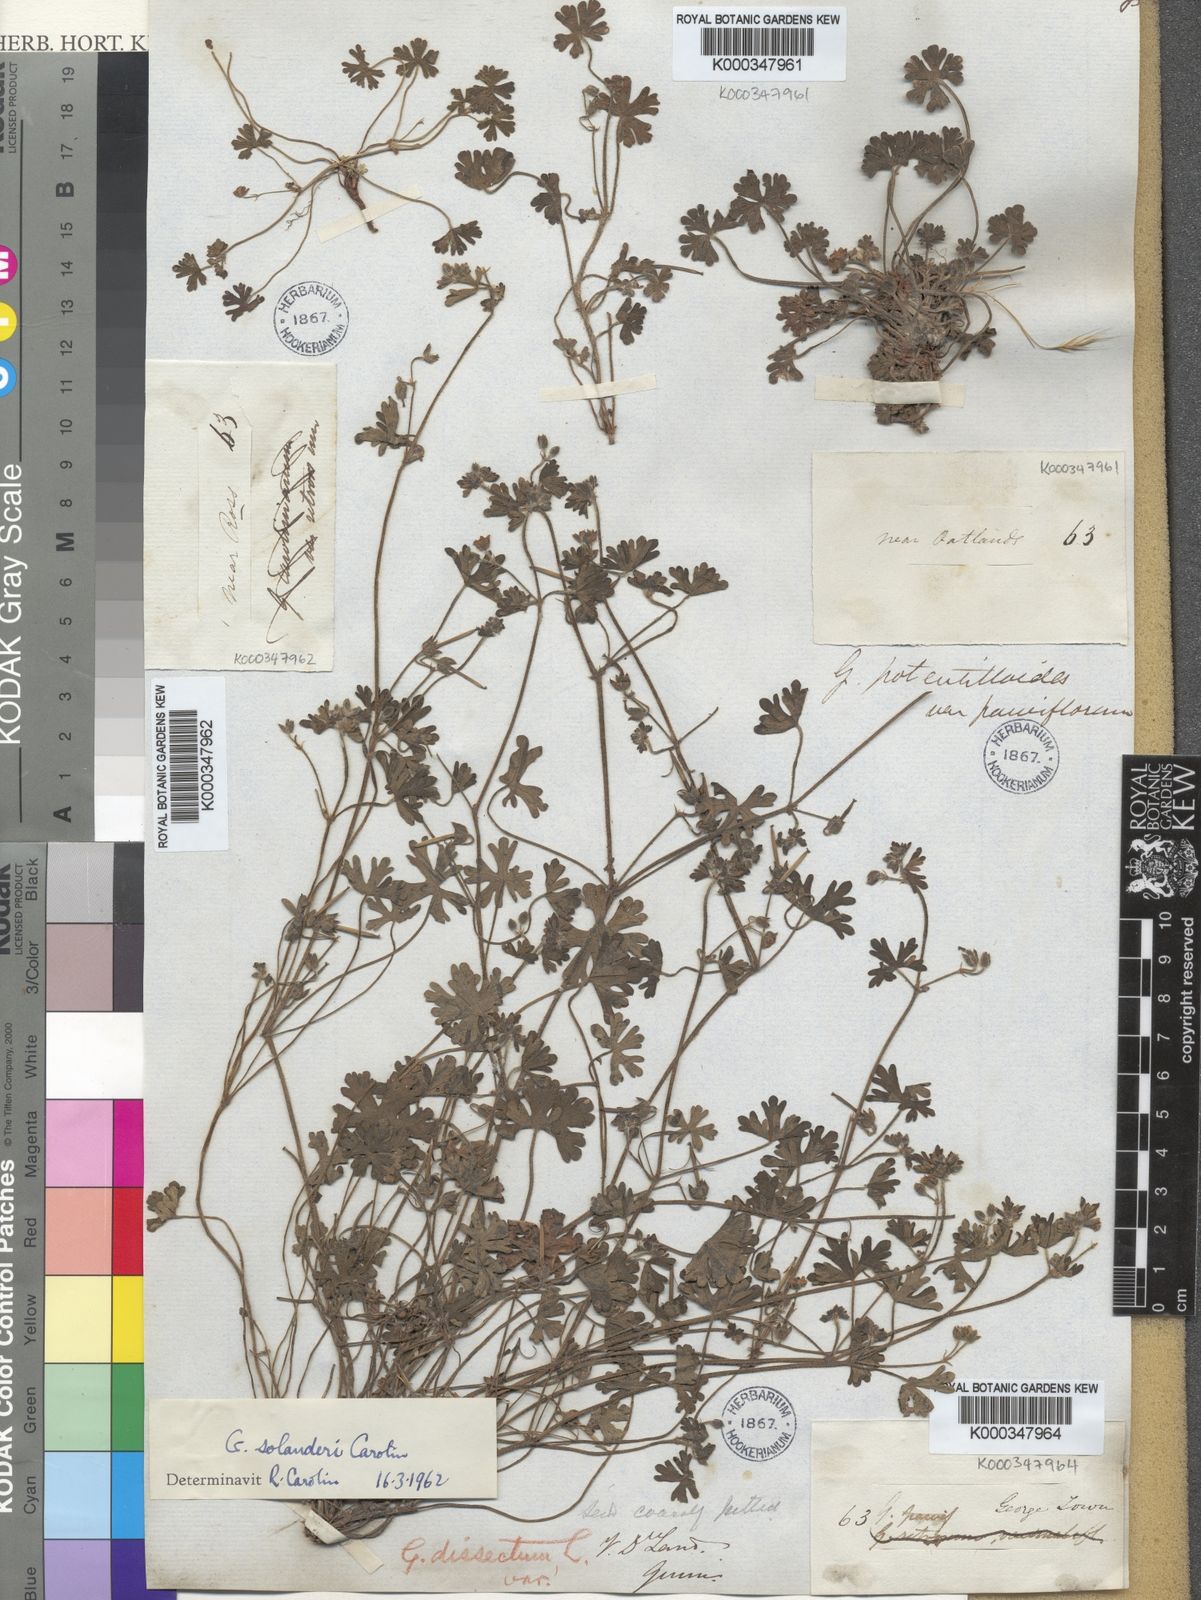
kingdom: Plantae
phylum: Tracheophyta
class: Magnoliopsida
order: Geraniales
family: Geraniaceae
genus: Geranium
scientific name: Geranium solanderi
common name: Solander's geranium
